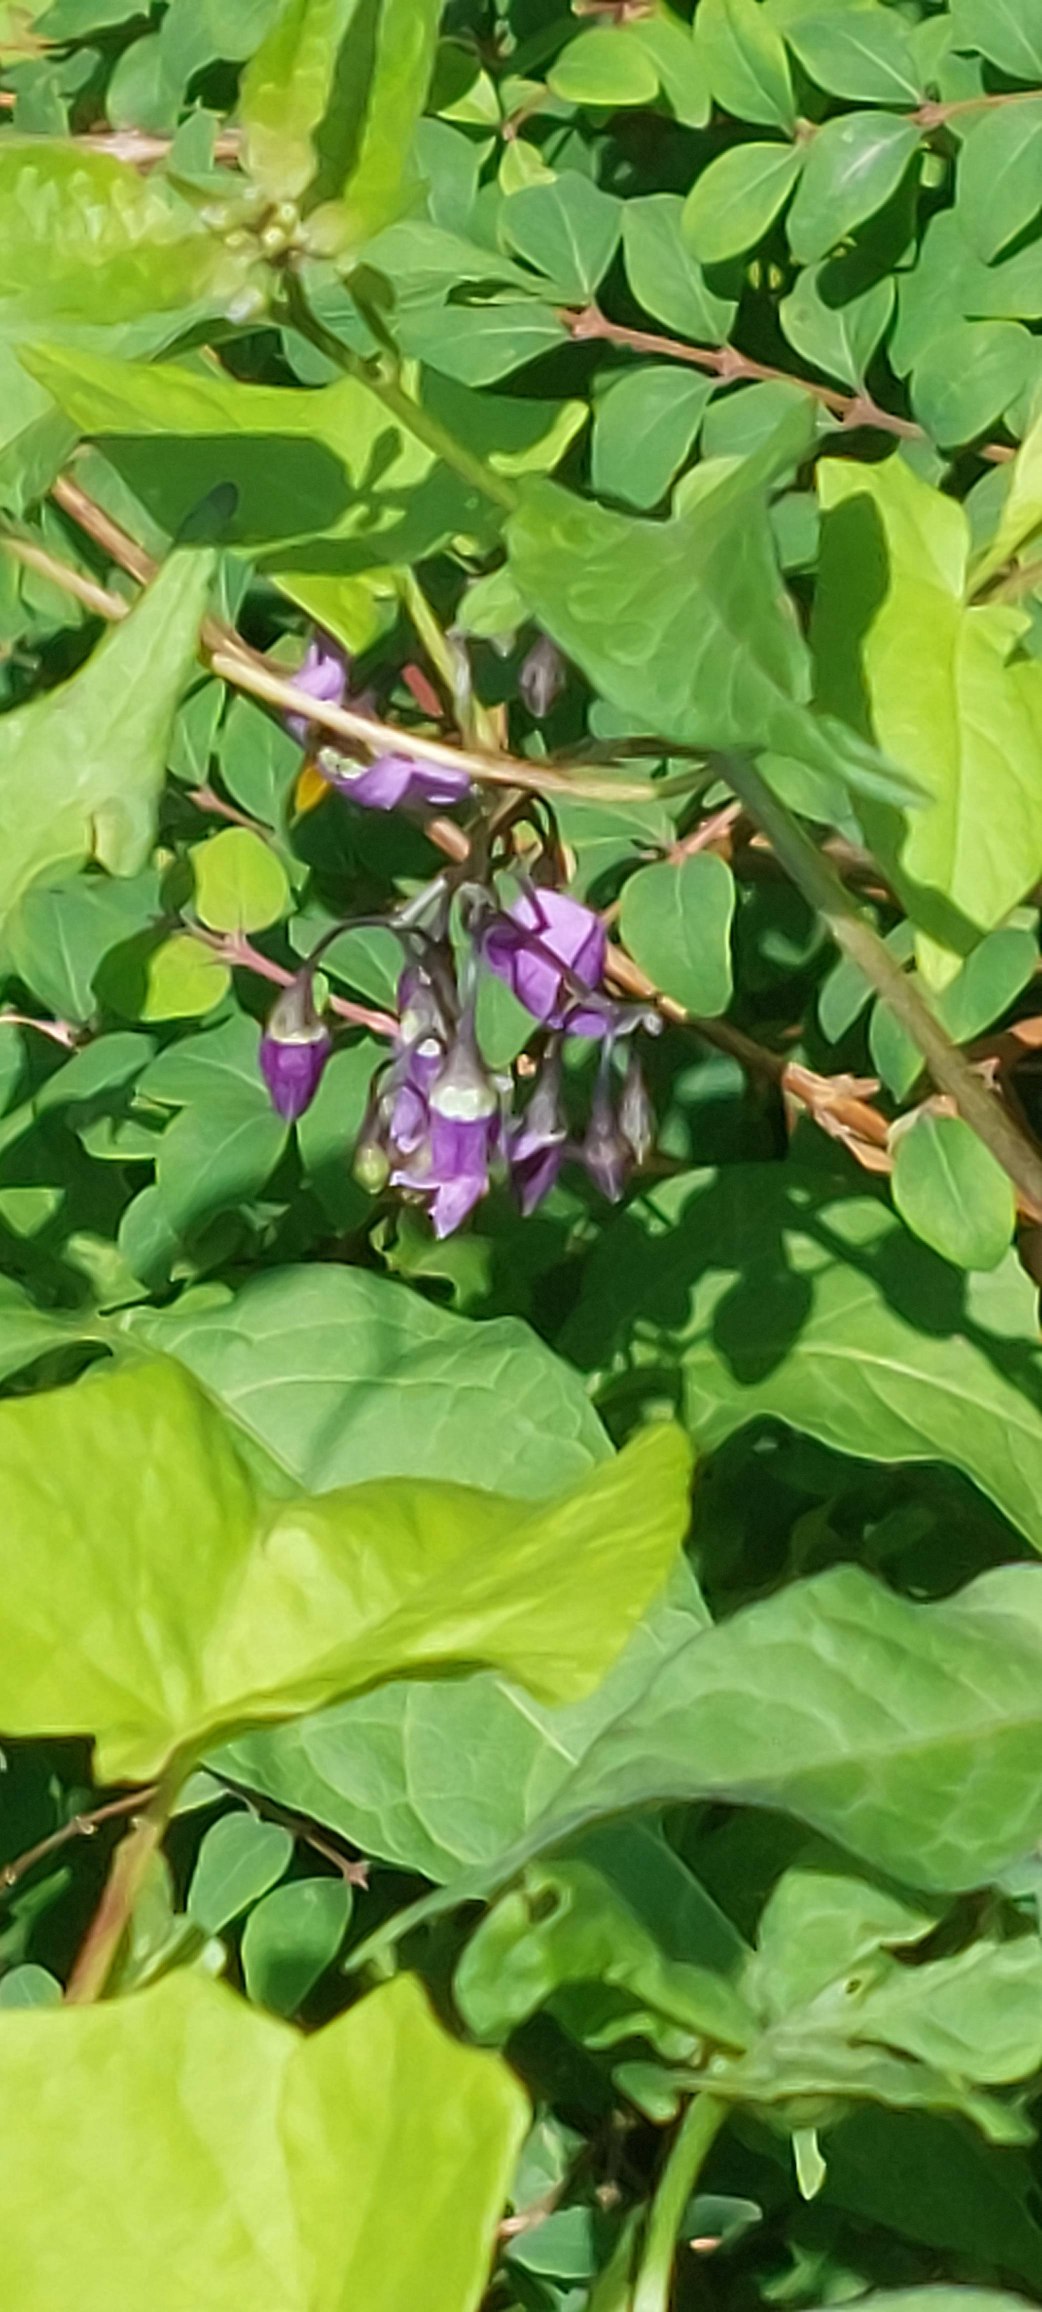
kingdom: Plantae
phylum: Tracheophyta
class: Magnoliopsida
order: Solanales
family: Solanaceae
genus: Solanum
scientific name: Solanum dulcamara
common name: Bittersød natskygge
